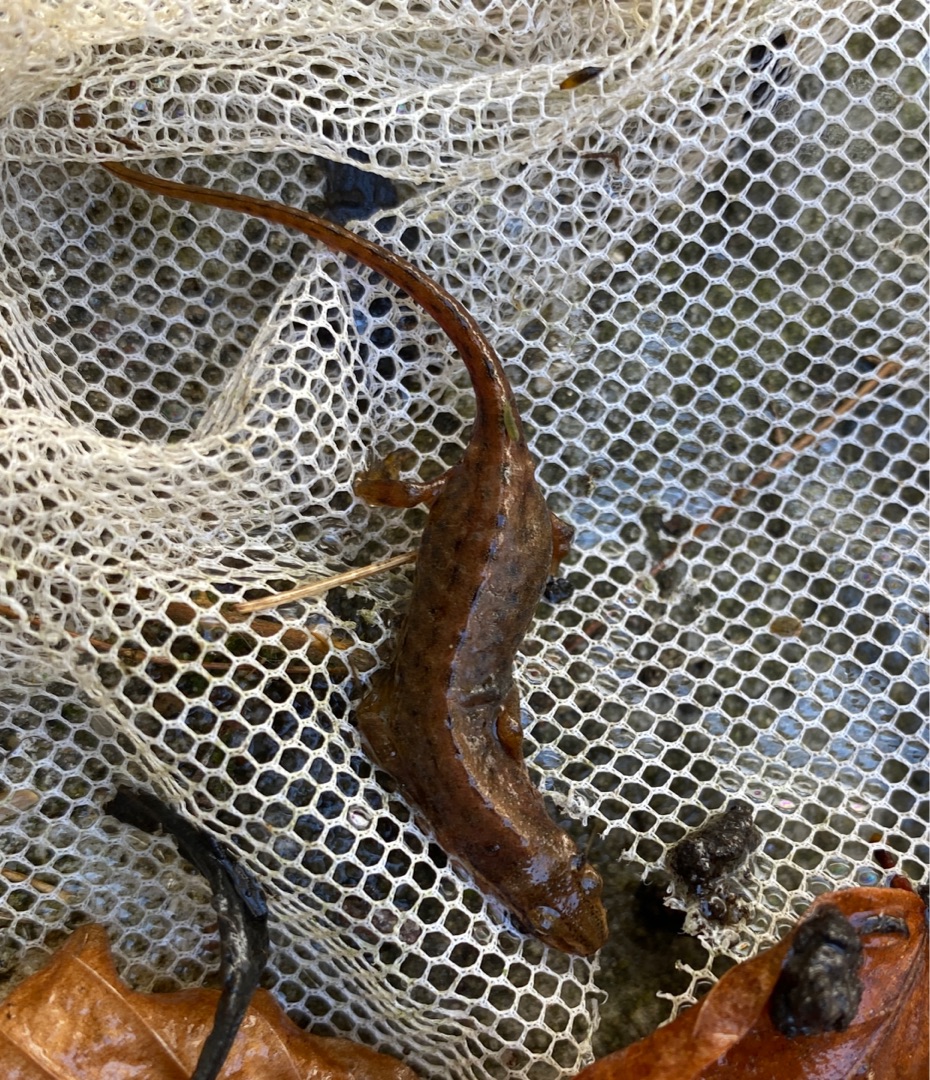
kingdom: Animalia
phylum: Chordata
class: Amphibia
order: Caudata
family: Salamandridae
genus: Lissotriton
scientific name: Lissotriton vulgaris
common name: Lille vandsalamander
